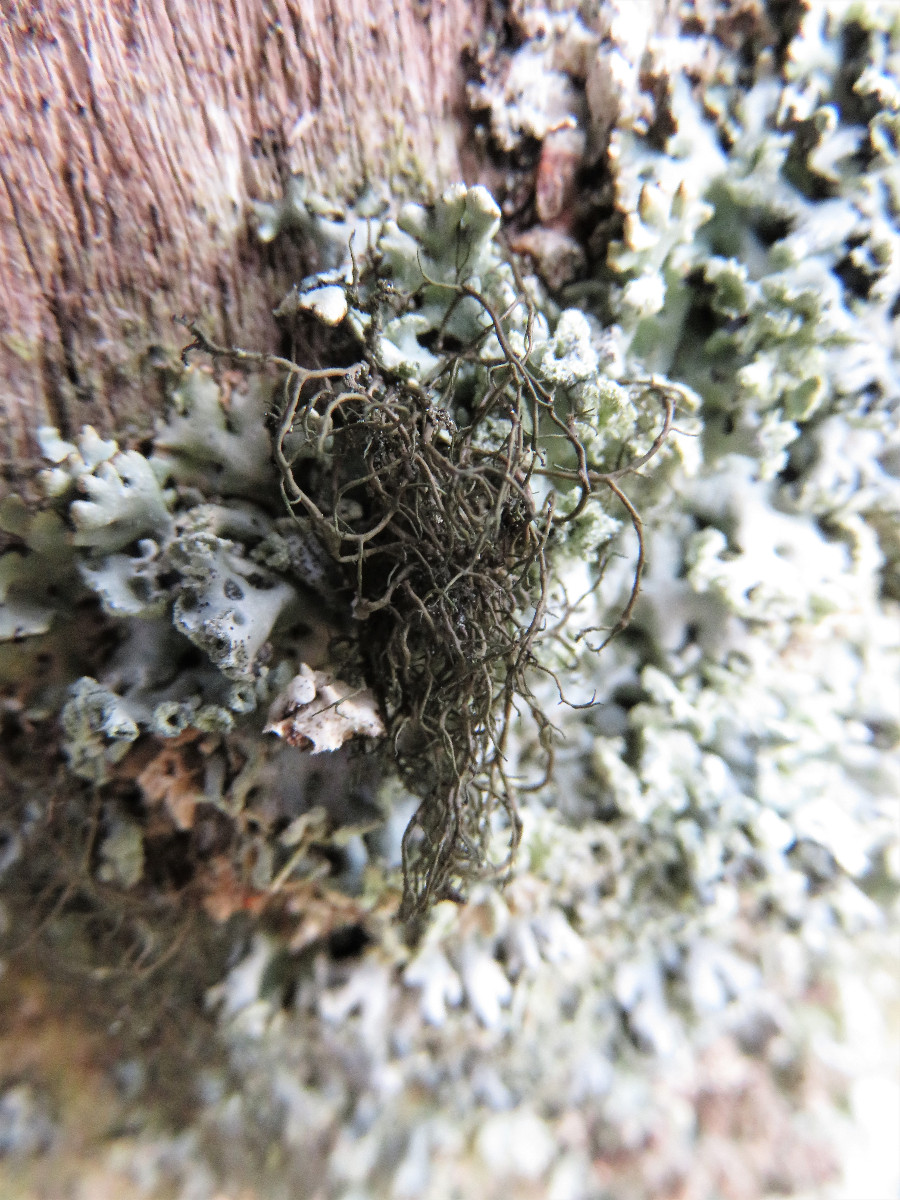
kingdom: Fungi
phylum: Ascomycota
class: Lecanoromycetes
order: Lecanorales
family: Parmeliaceae
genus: Bryoria
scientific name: Bryoria fuscescens
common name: almindelig mankelav
